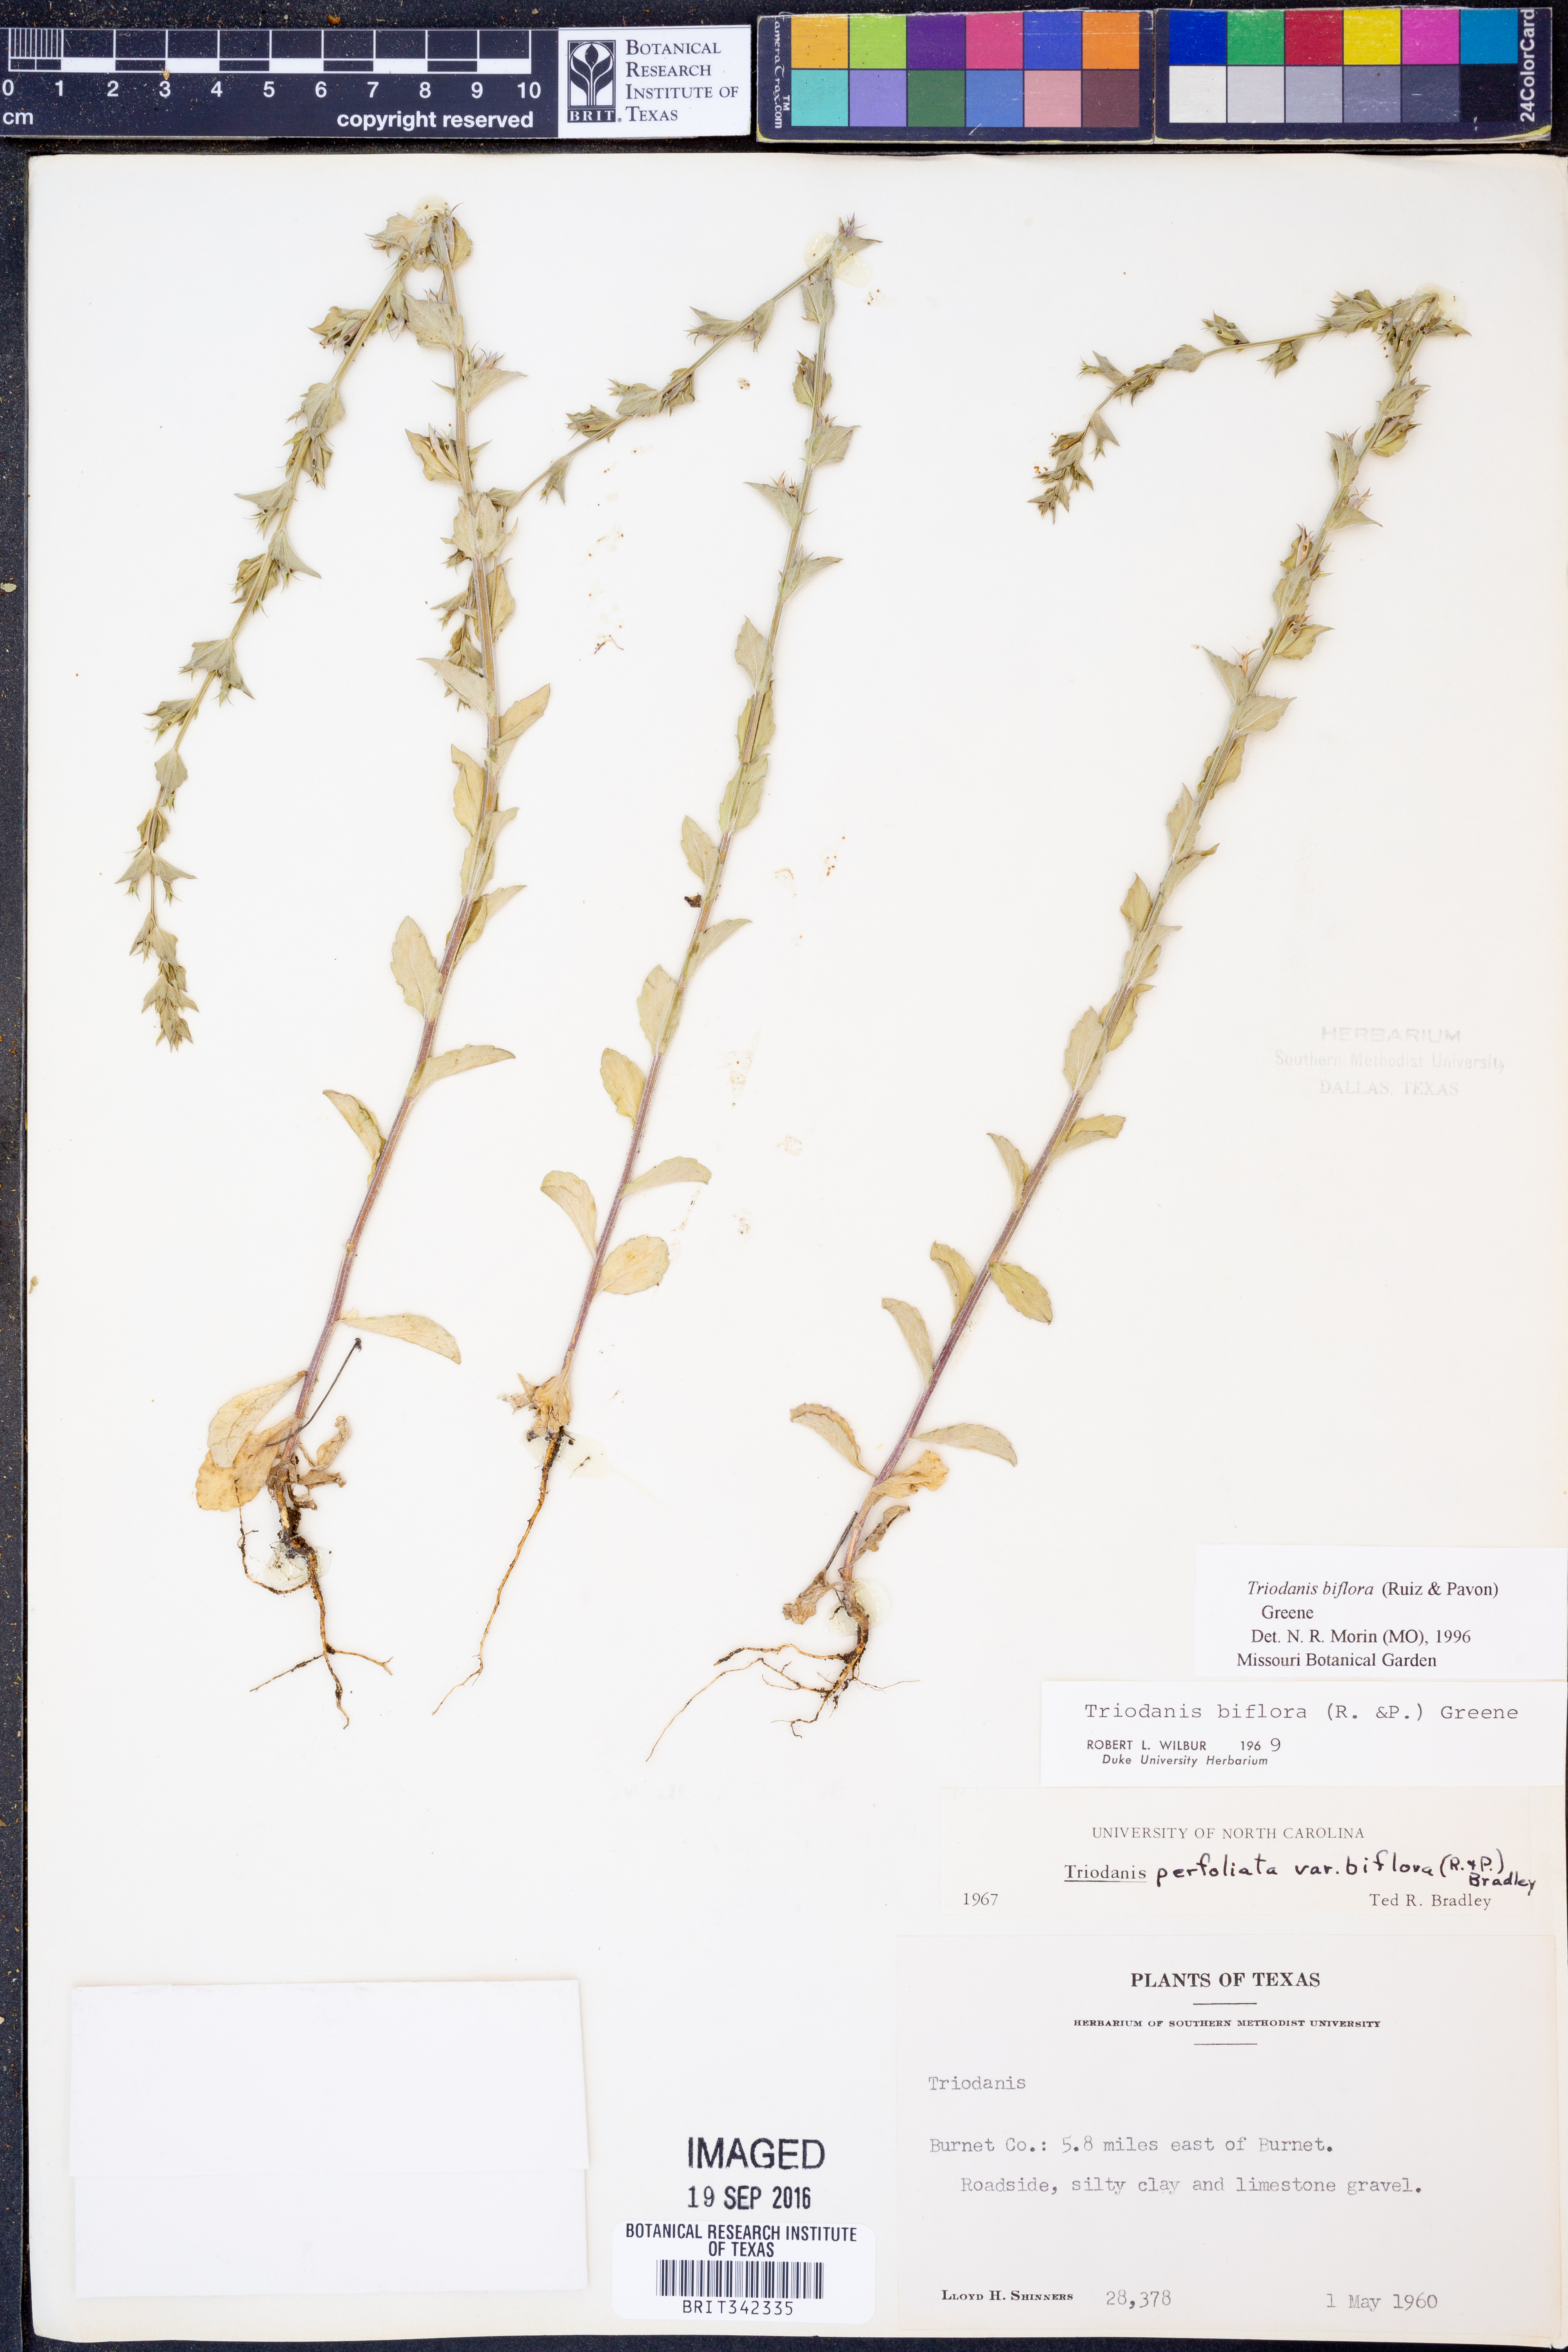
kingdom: Plantae
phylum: Tracheophyta
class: Magnoliopsida
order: Asterales
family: Campanulaceae
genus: Triodanis
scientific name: Triodanis perfoliata
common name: Clasping venus' looking-glass
